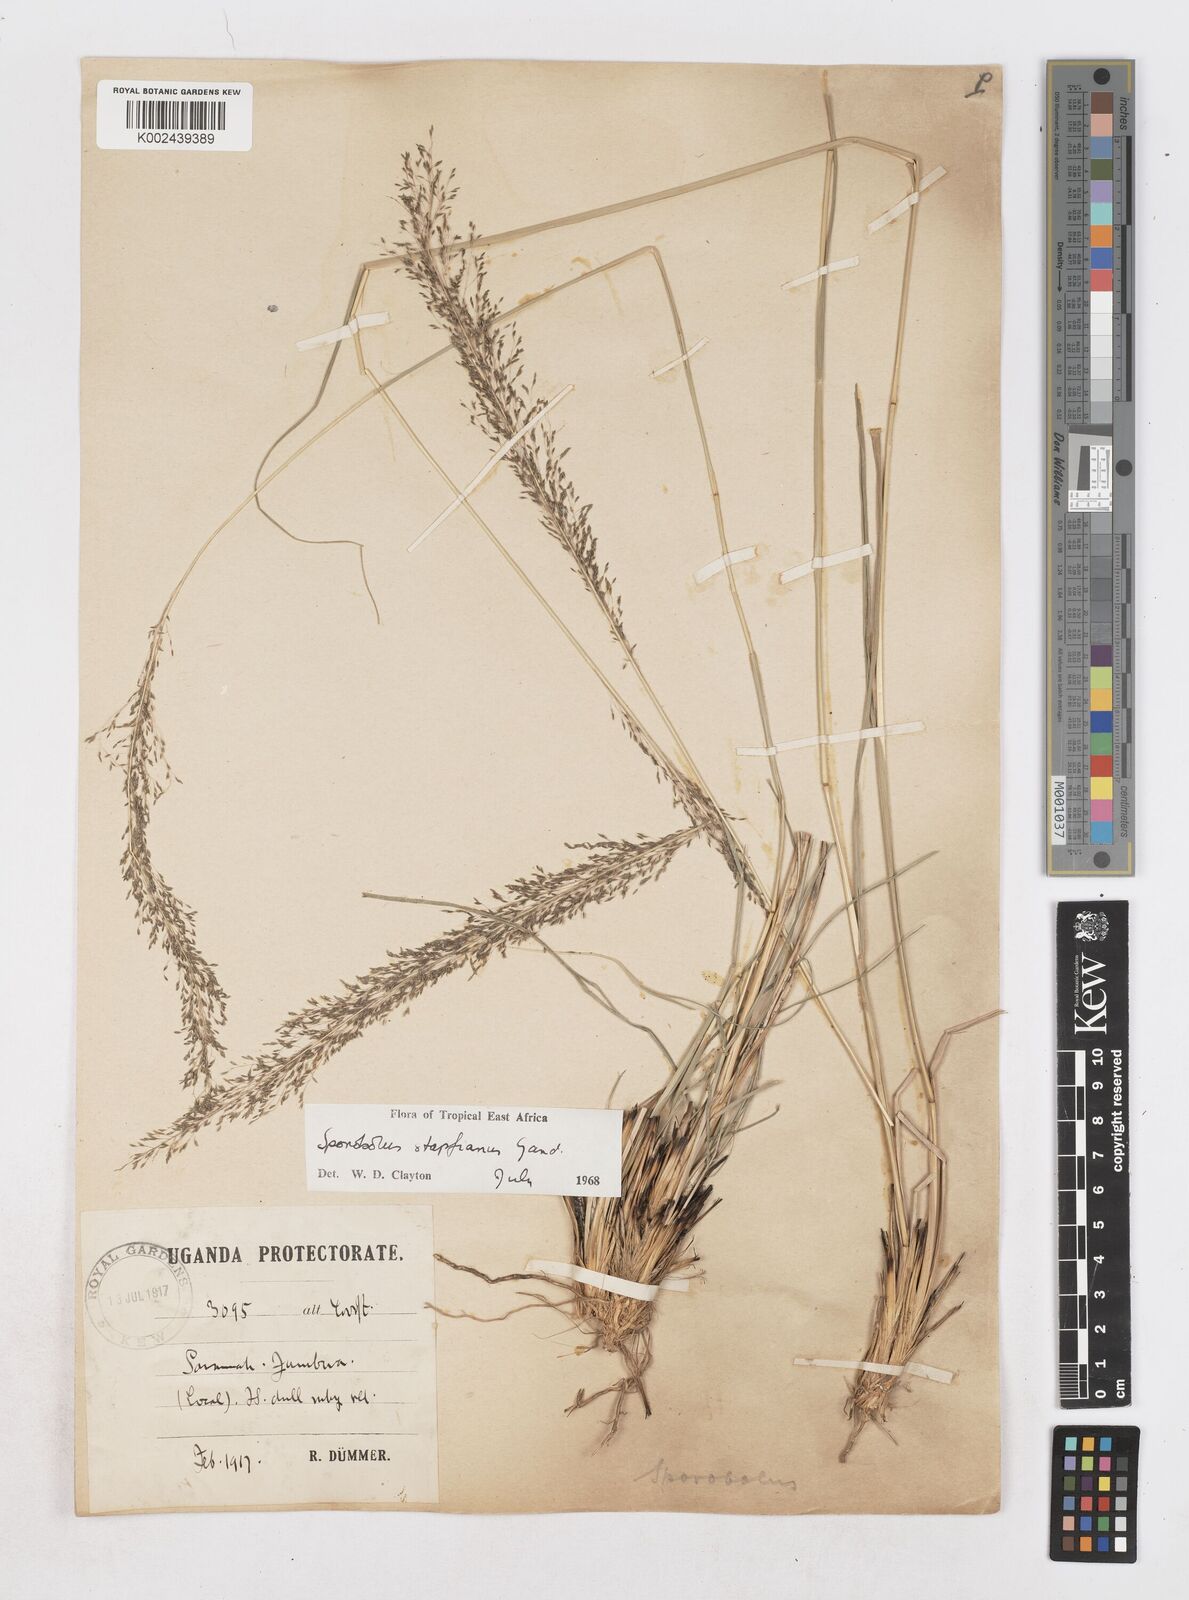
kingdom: Plantae
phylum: Tracheophyta
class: Liliopsida
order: Poales
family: Poaceae
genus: Sporobolus
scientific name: Sporobolus stapfianus
